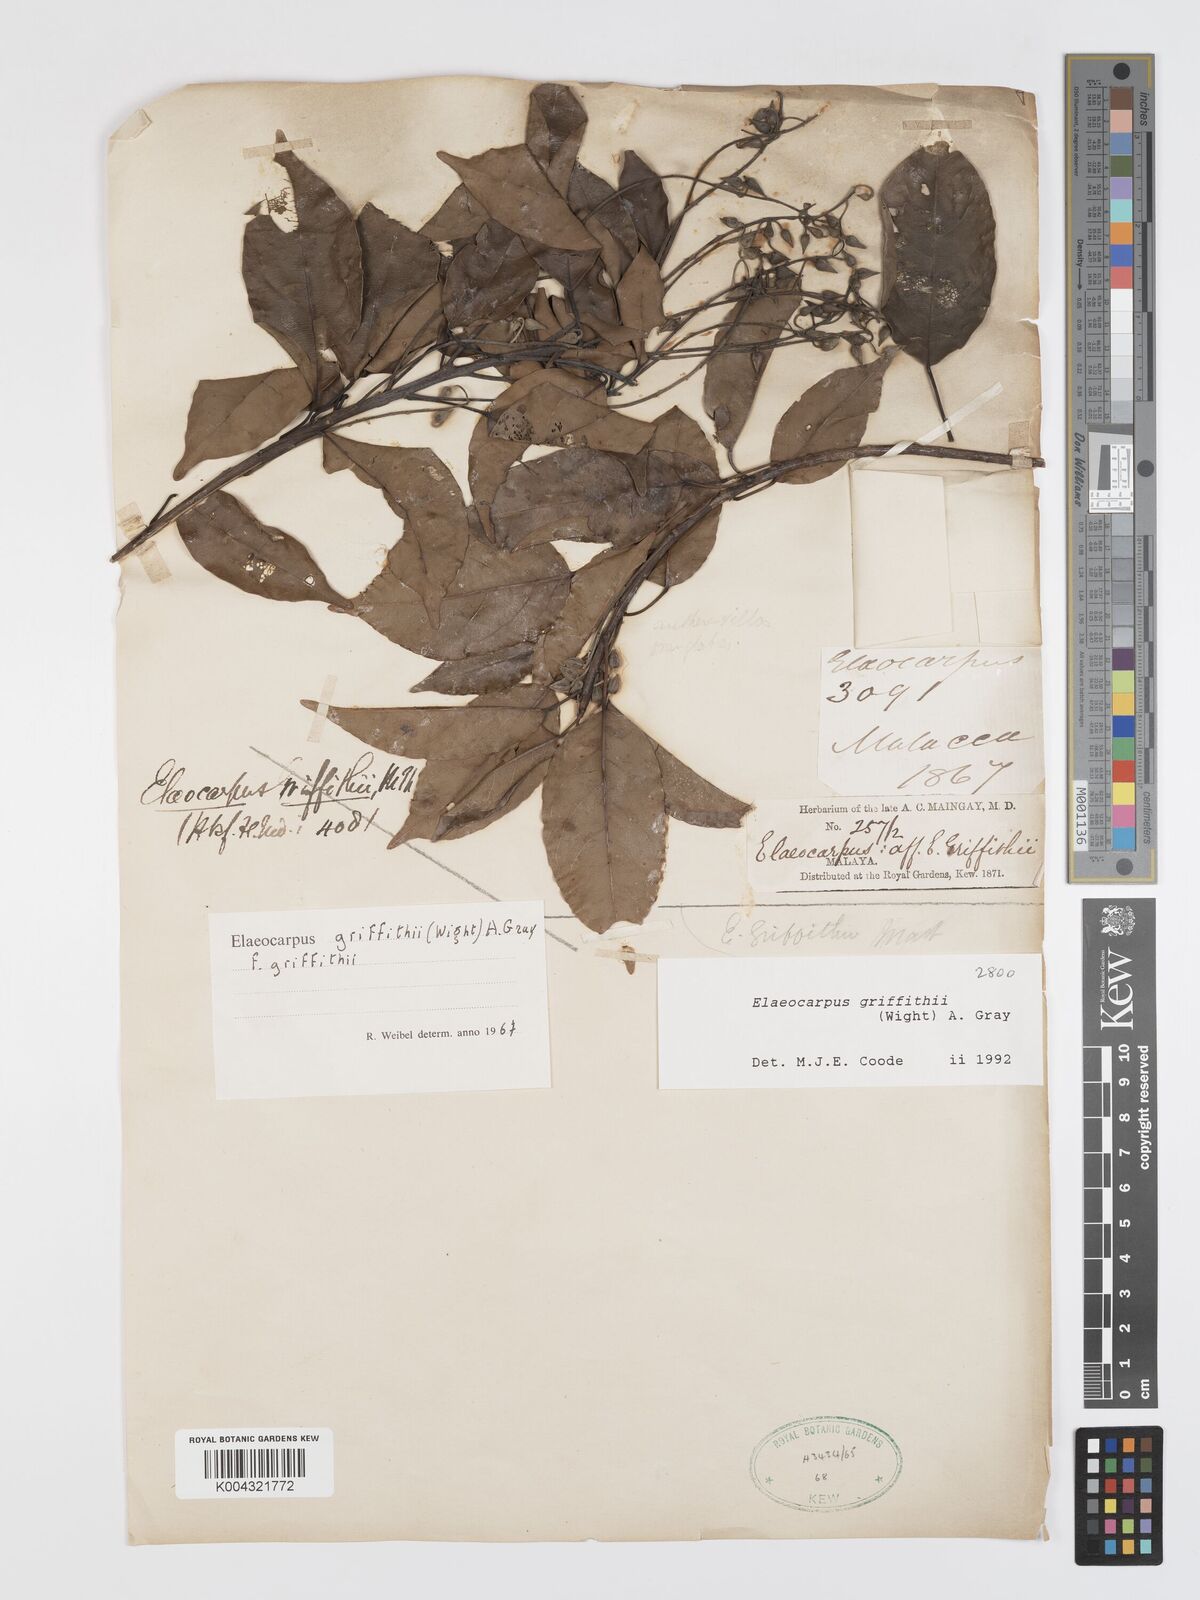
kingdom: Plantae
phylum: Tracheophyta
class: Magnoliopsida
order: Oxalidales
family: Elaeocarpaceae
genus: Elaeocarpus
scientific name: Elaeocarpus griffithii
